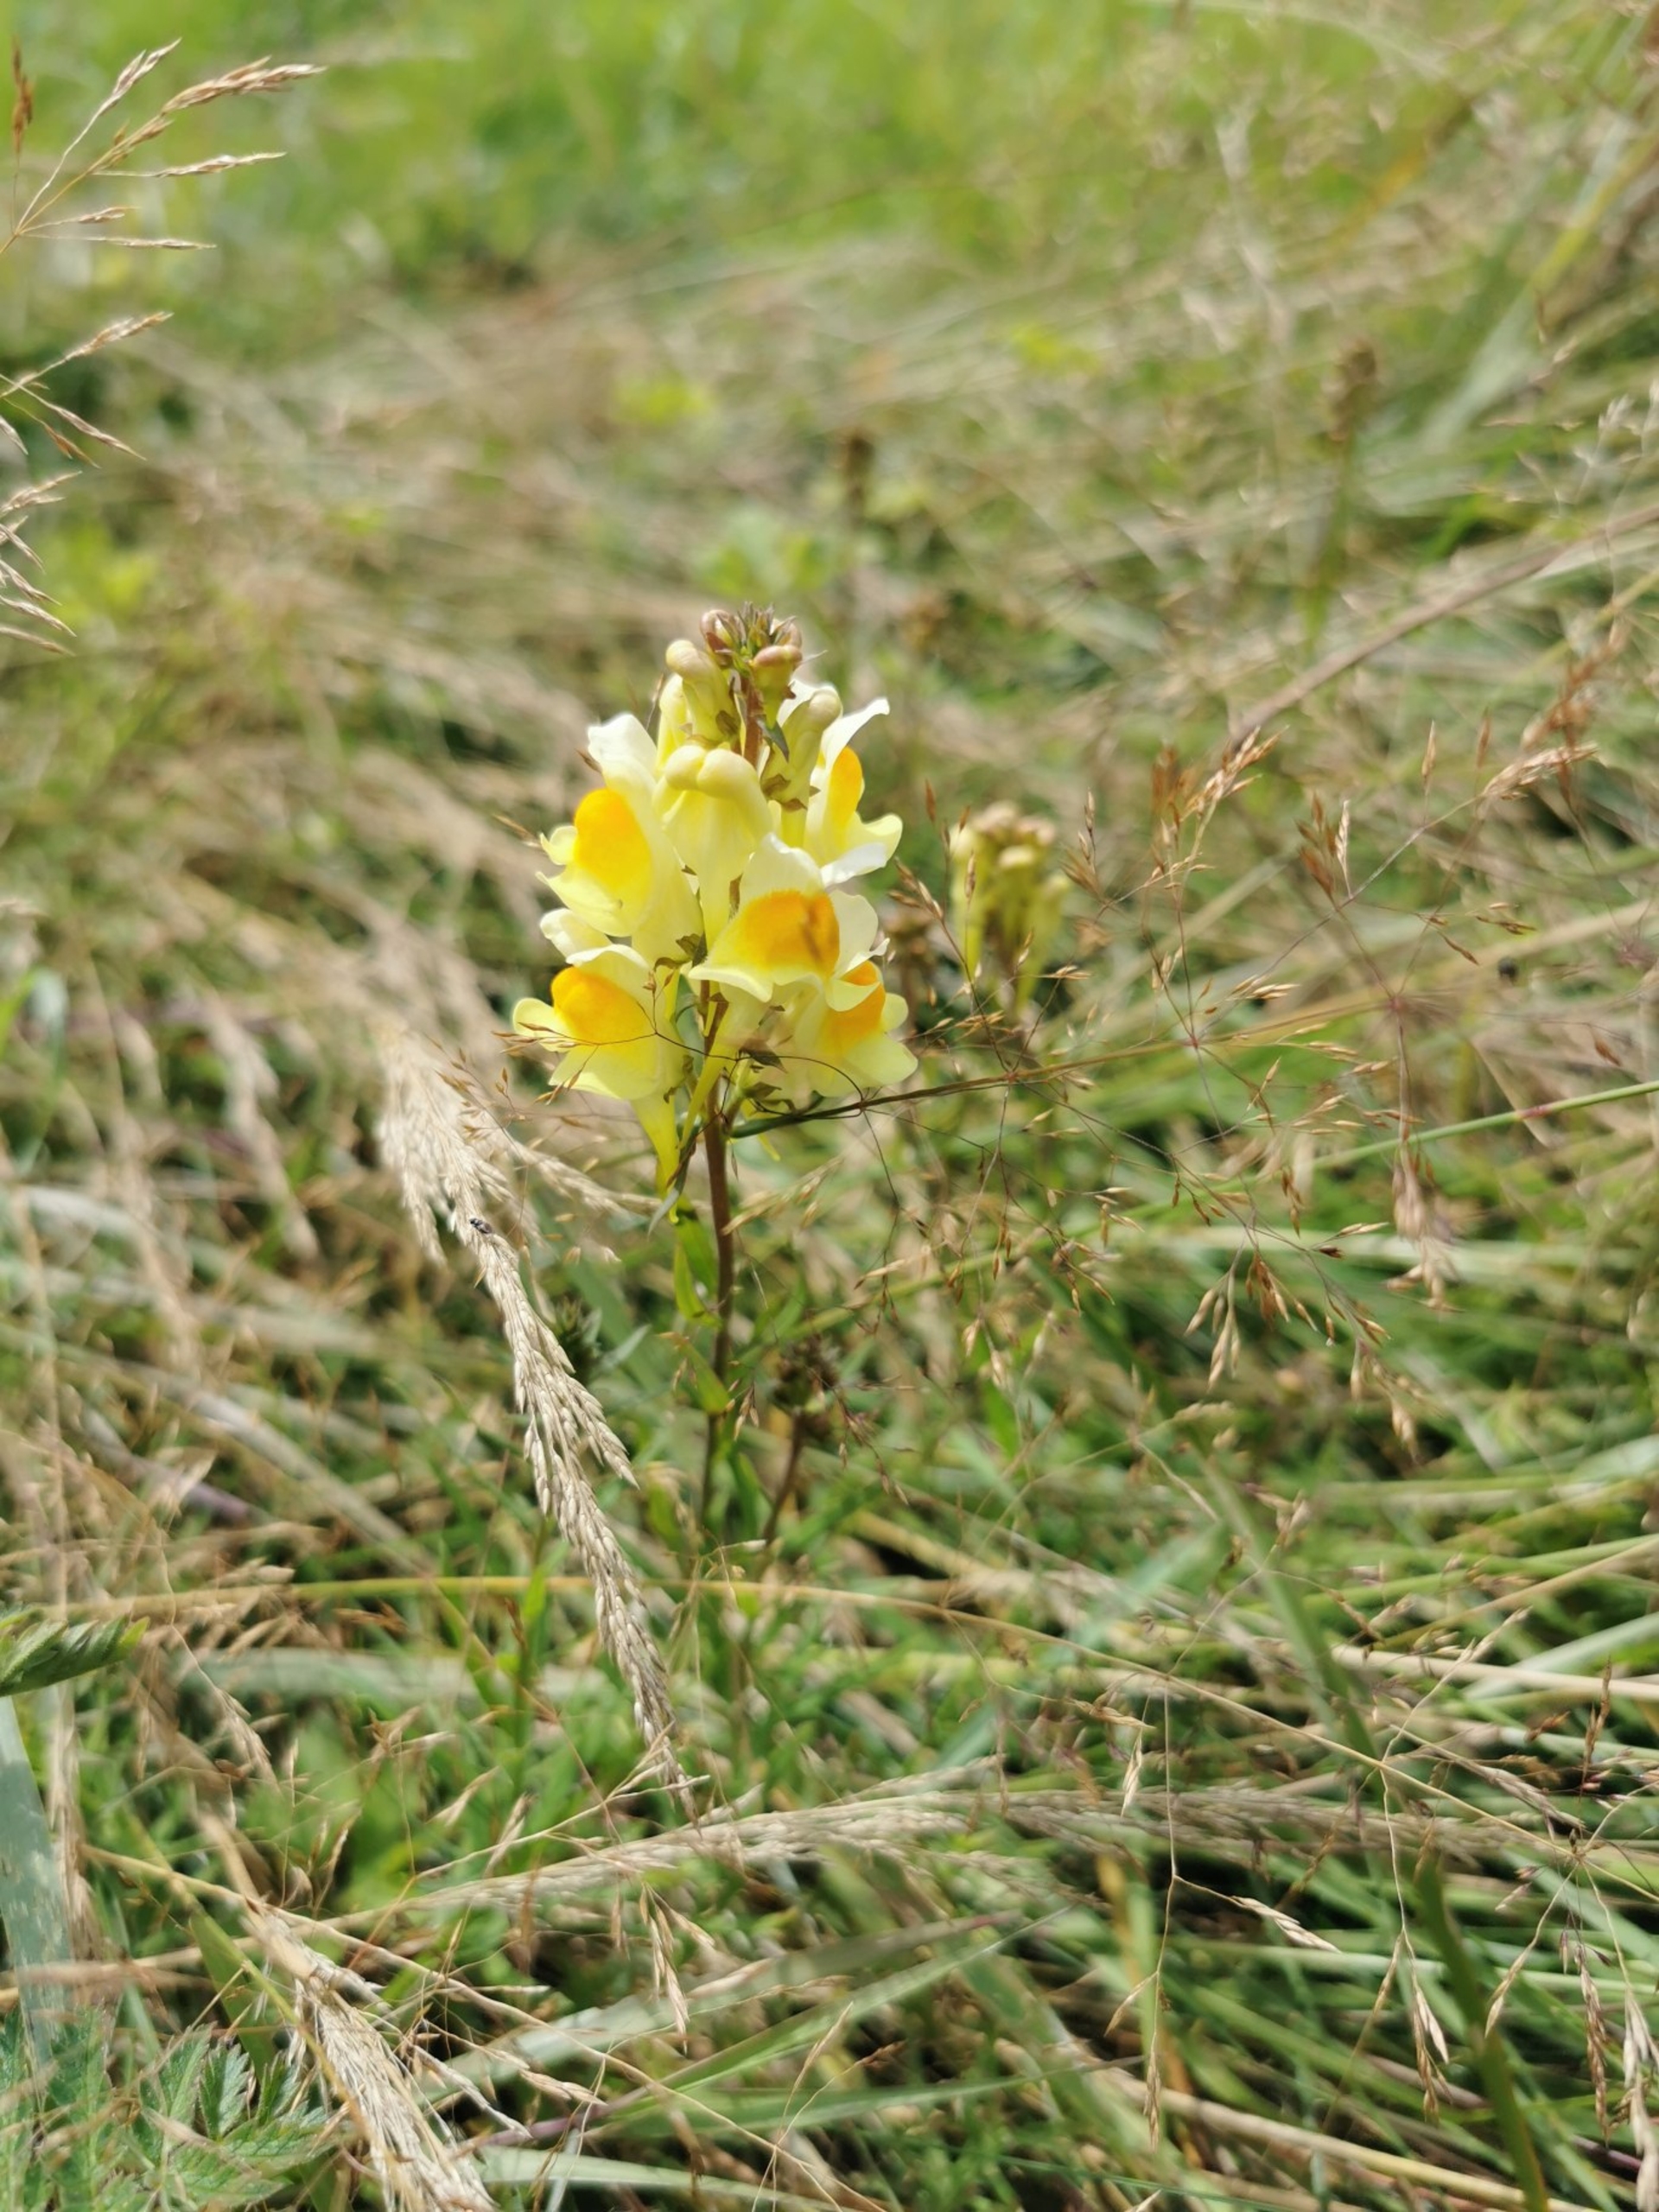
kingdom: Plantae
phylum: Tracheophyta
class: Magnoliopsida
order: Lamiales
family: Plantaginaceae
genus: Linaria
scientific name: Linaria vulgaris
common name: Almindelig torskemund
